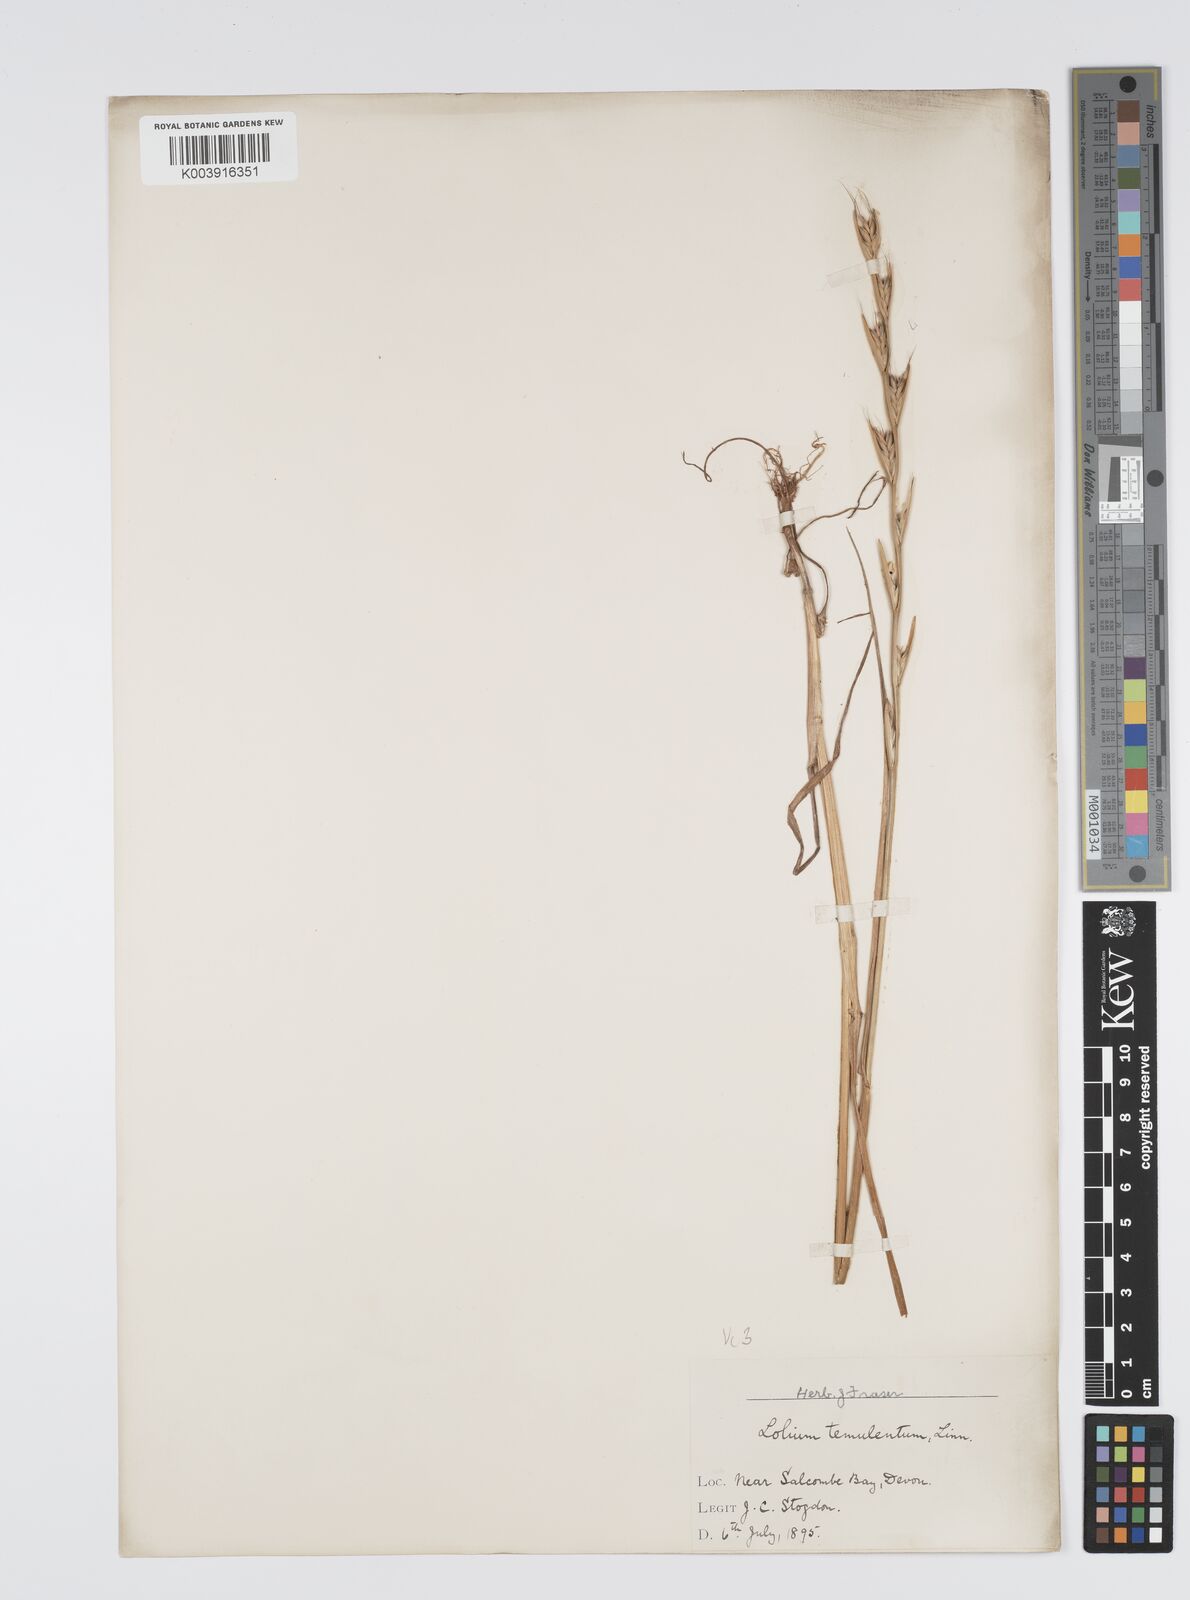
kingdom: Plantae
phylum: Tracheophyta
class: Liliopsida
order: Poales
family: Poaceae
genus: Lolium
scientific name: Lolium temulentum
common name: Darnel
